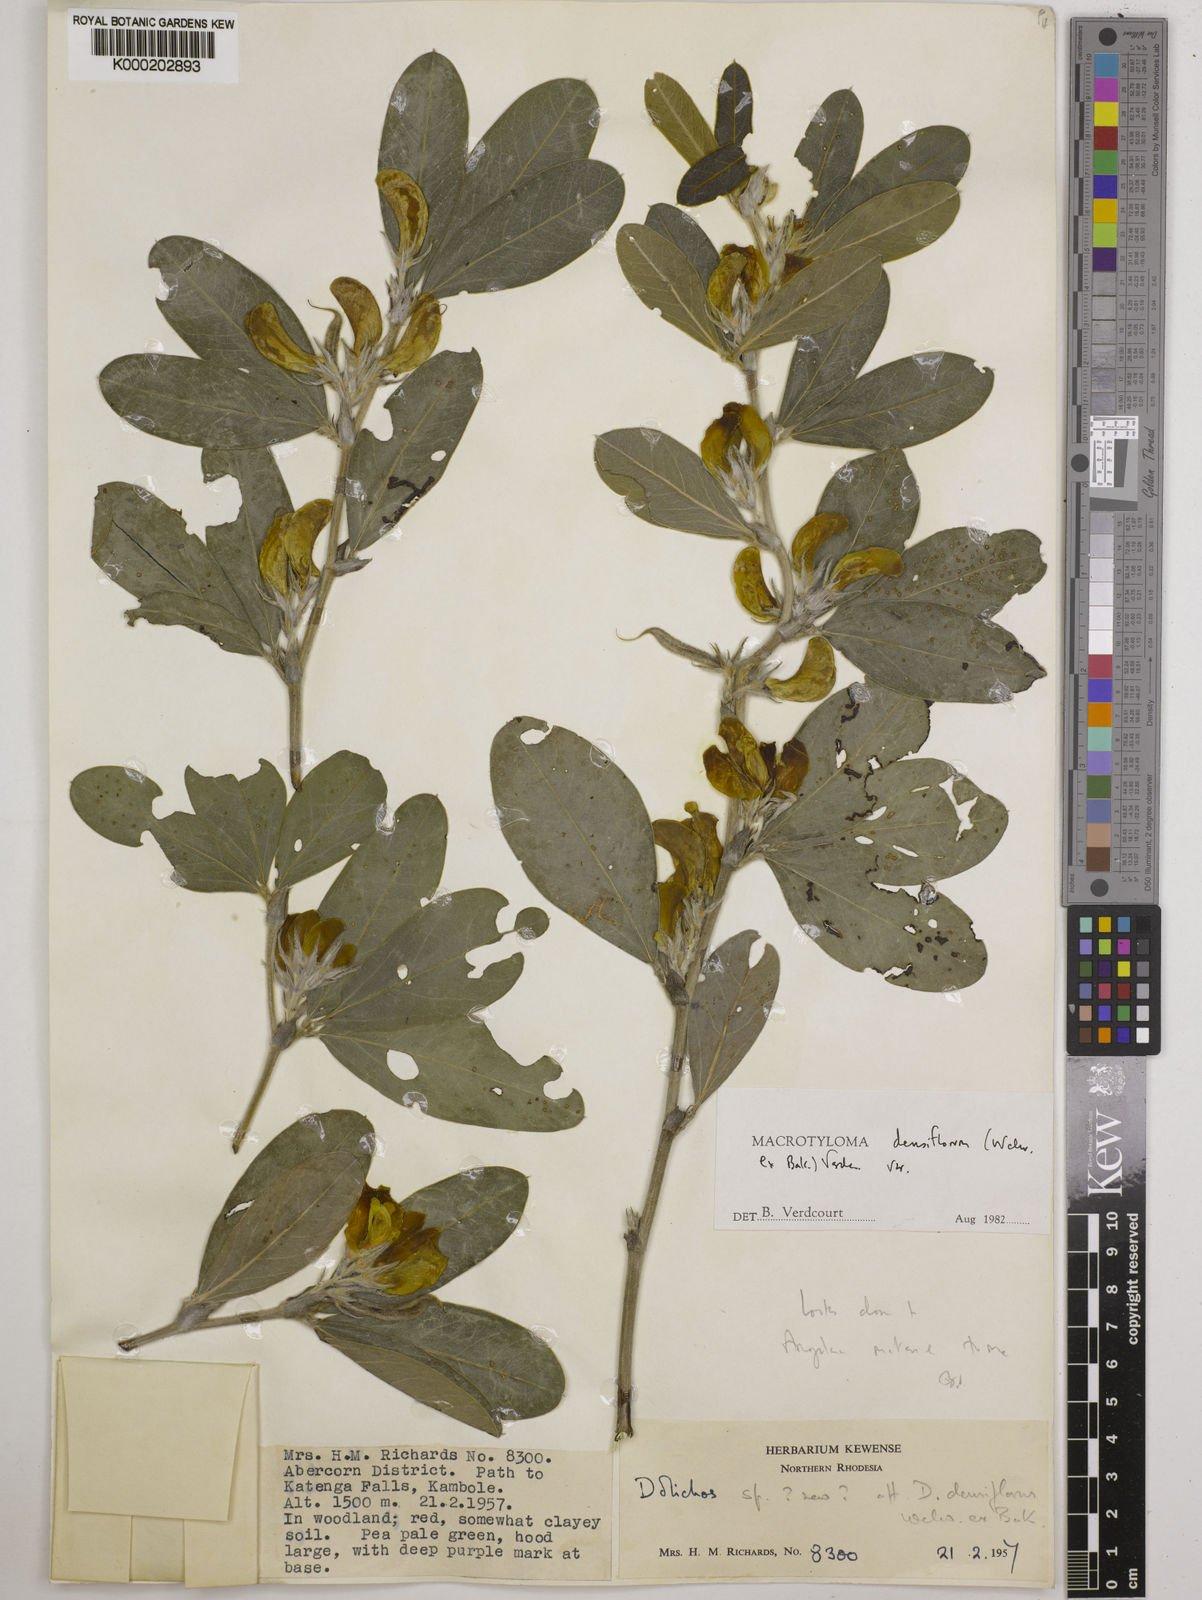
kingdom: Plantae
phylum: Tracheophyta
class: Magnoliopsida
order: Fabales
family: Fabaceae
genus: Macrotyloma
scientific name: Macrotyloma densiflorum
